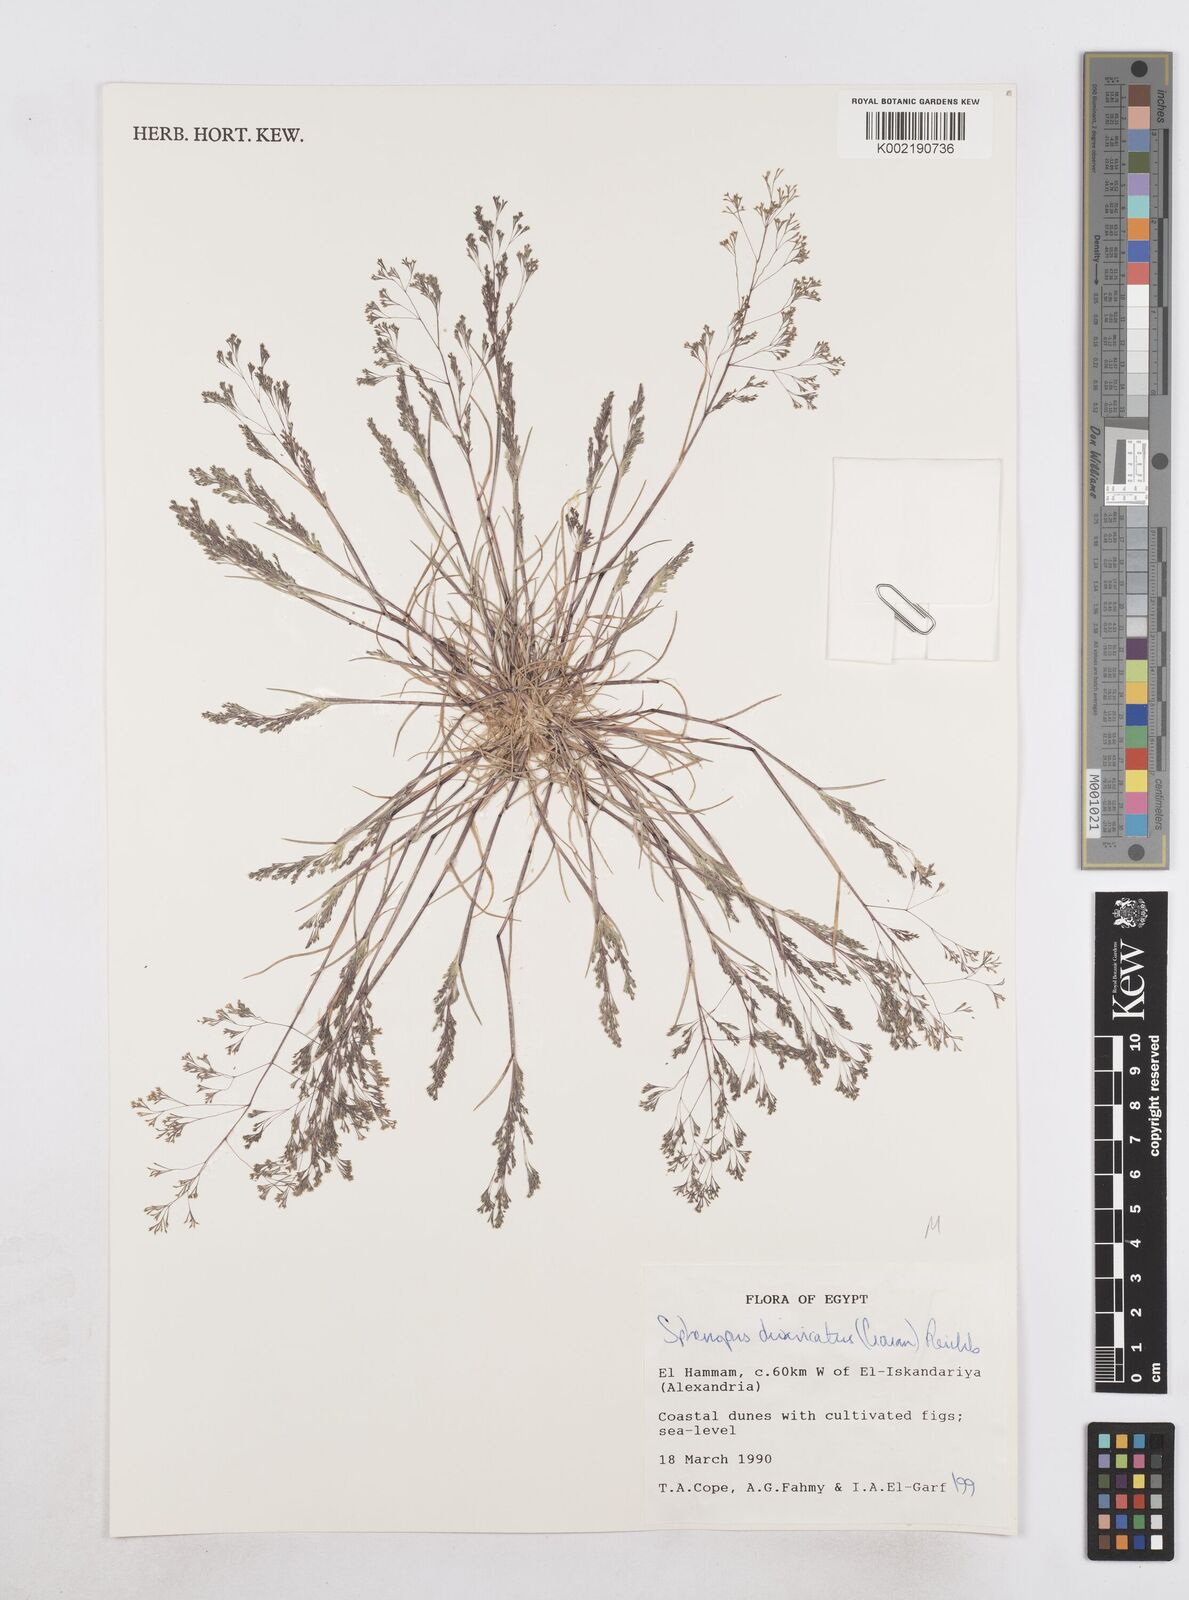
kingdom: Plantae
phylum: Tracheophyta
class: Liliopsida
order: Poales
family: Poaceae
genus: Sphenopus
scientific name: Sphenopus divaricatus
